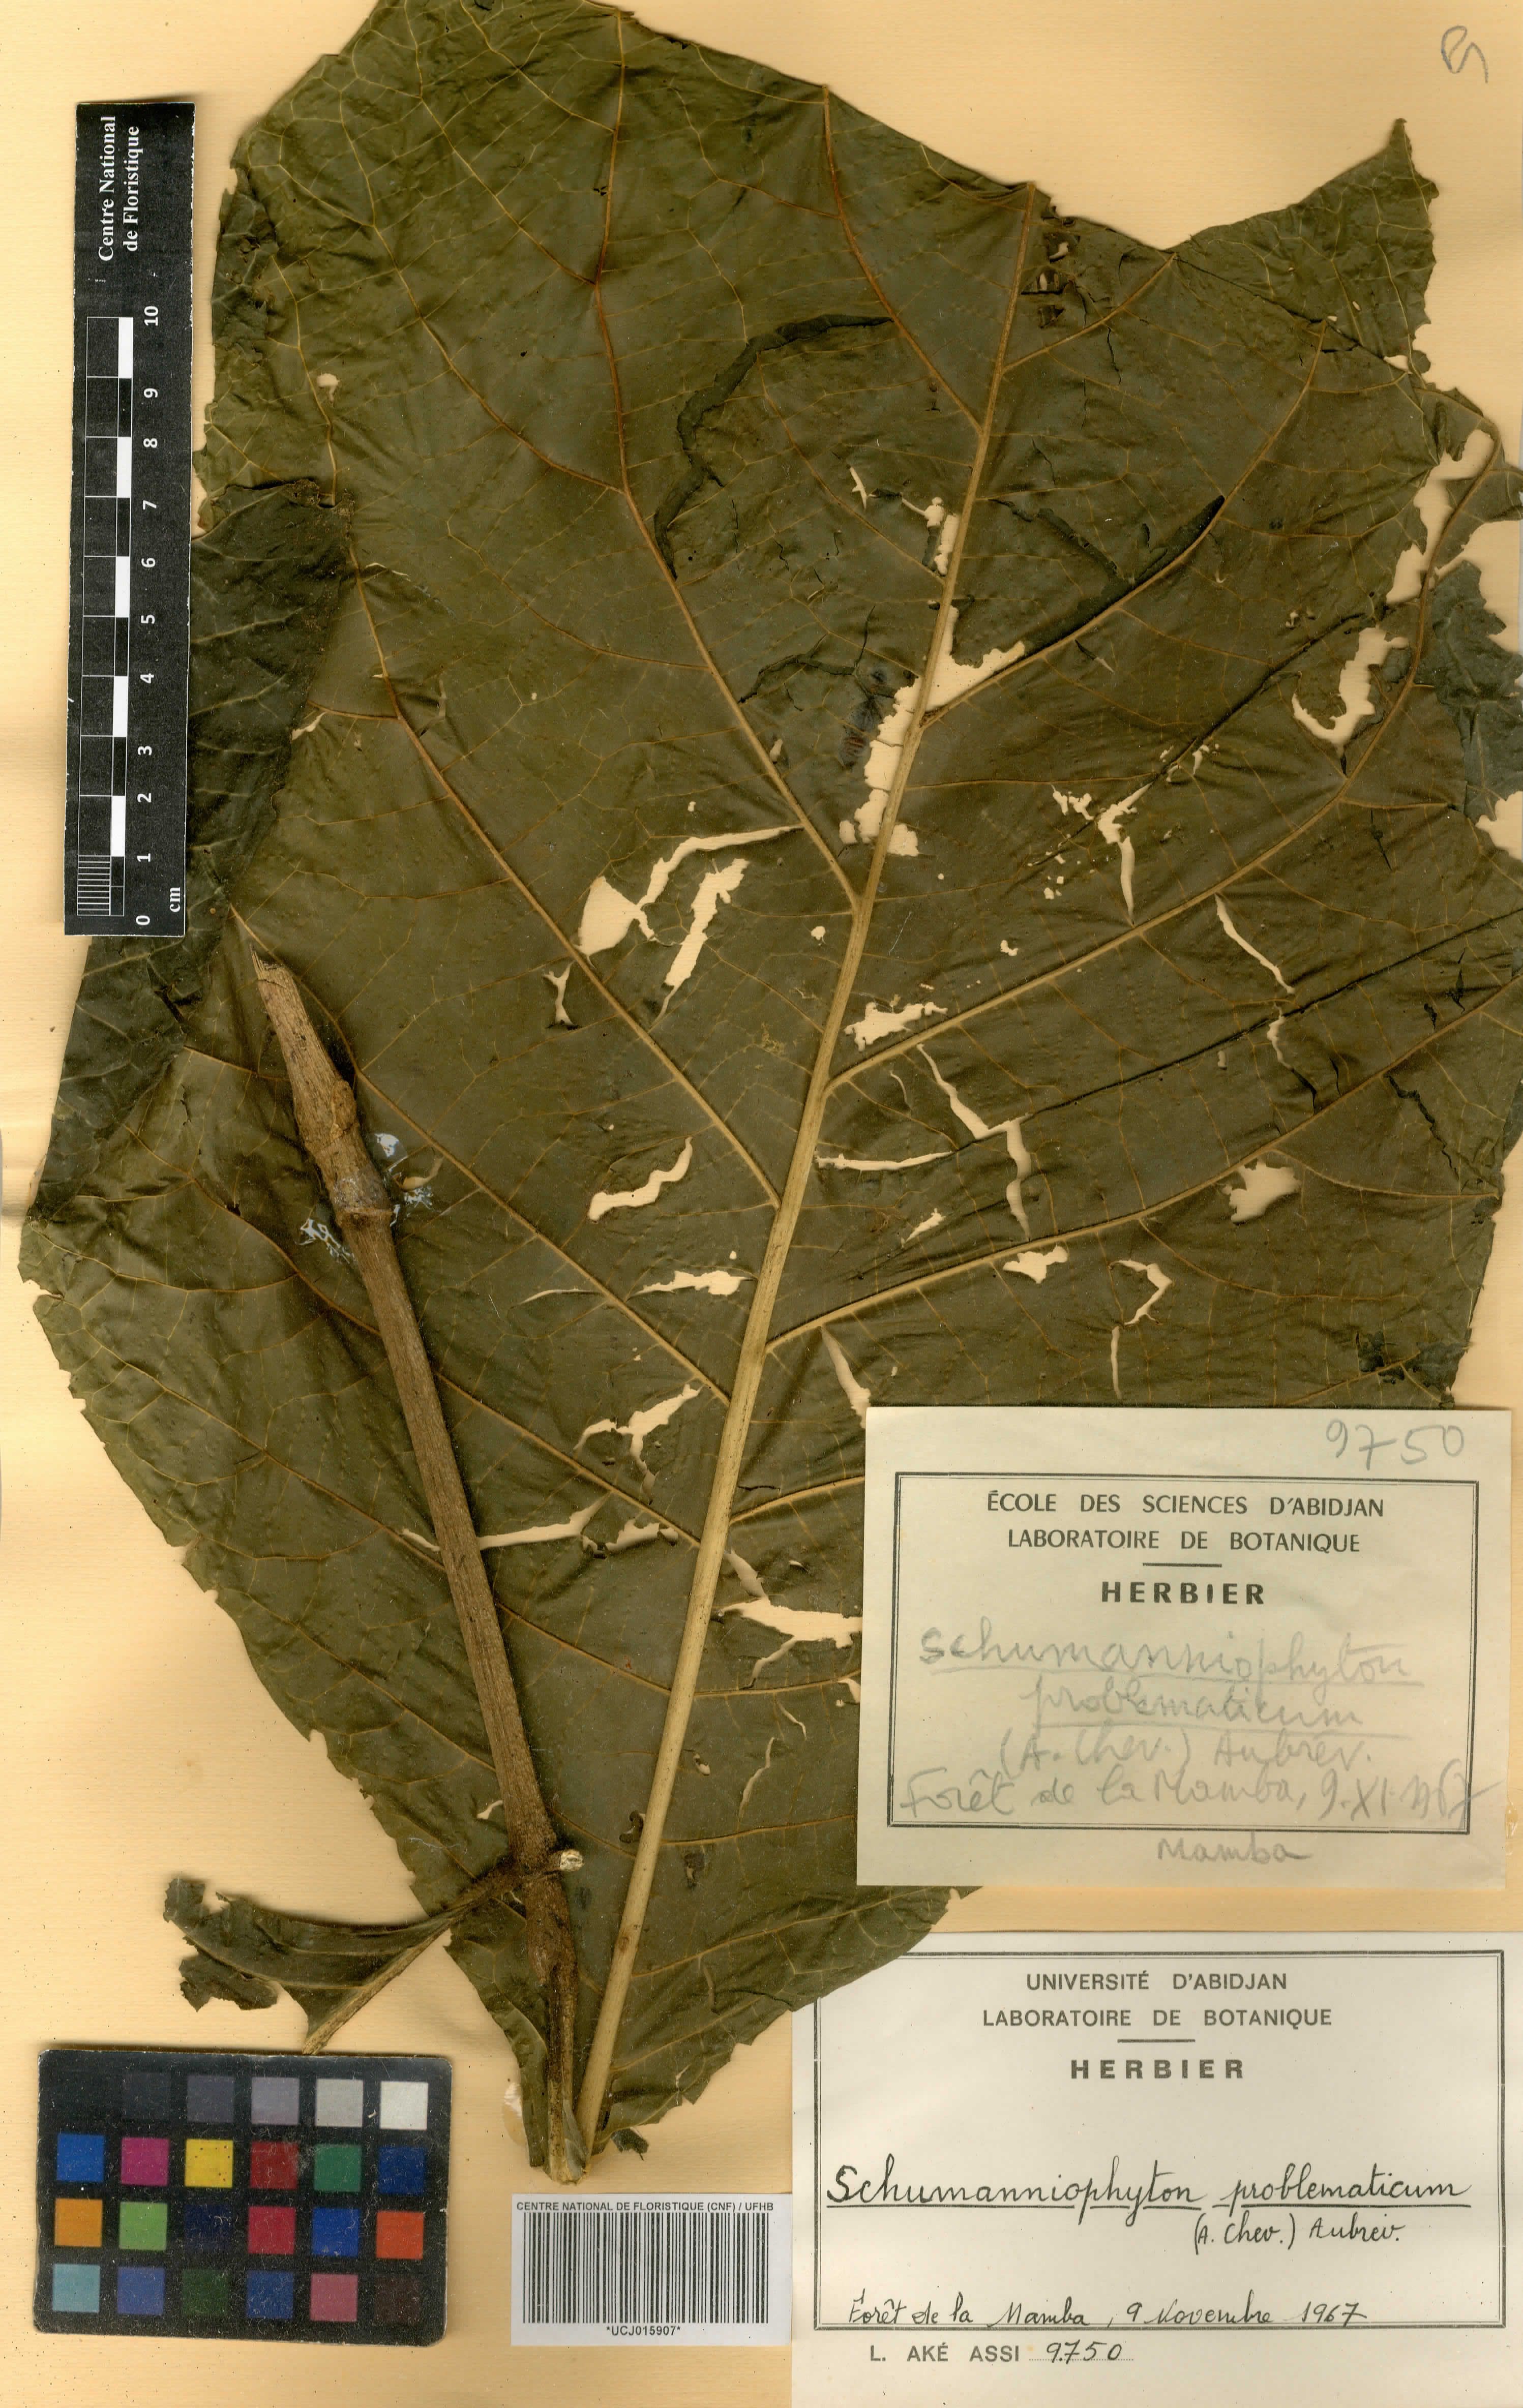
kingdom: Plantae
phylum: Tracheophyta
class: Magnoliopsida
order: Gentianales
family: Rubiaceae
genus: Schumanniophyton
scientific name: Schumanniophyton problematicum
